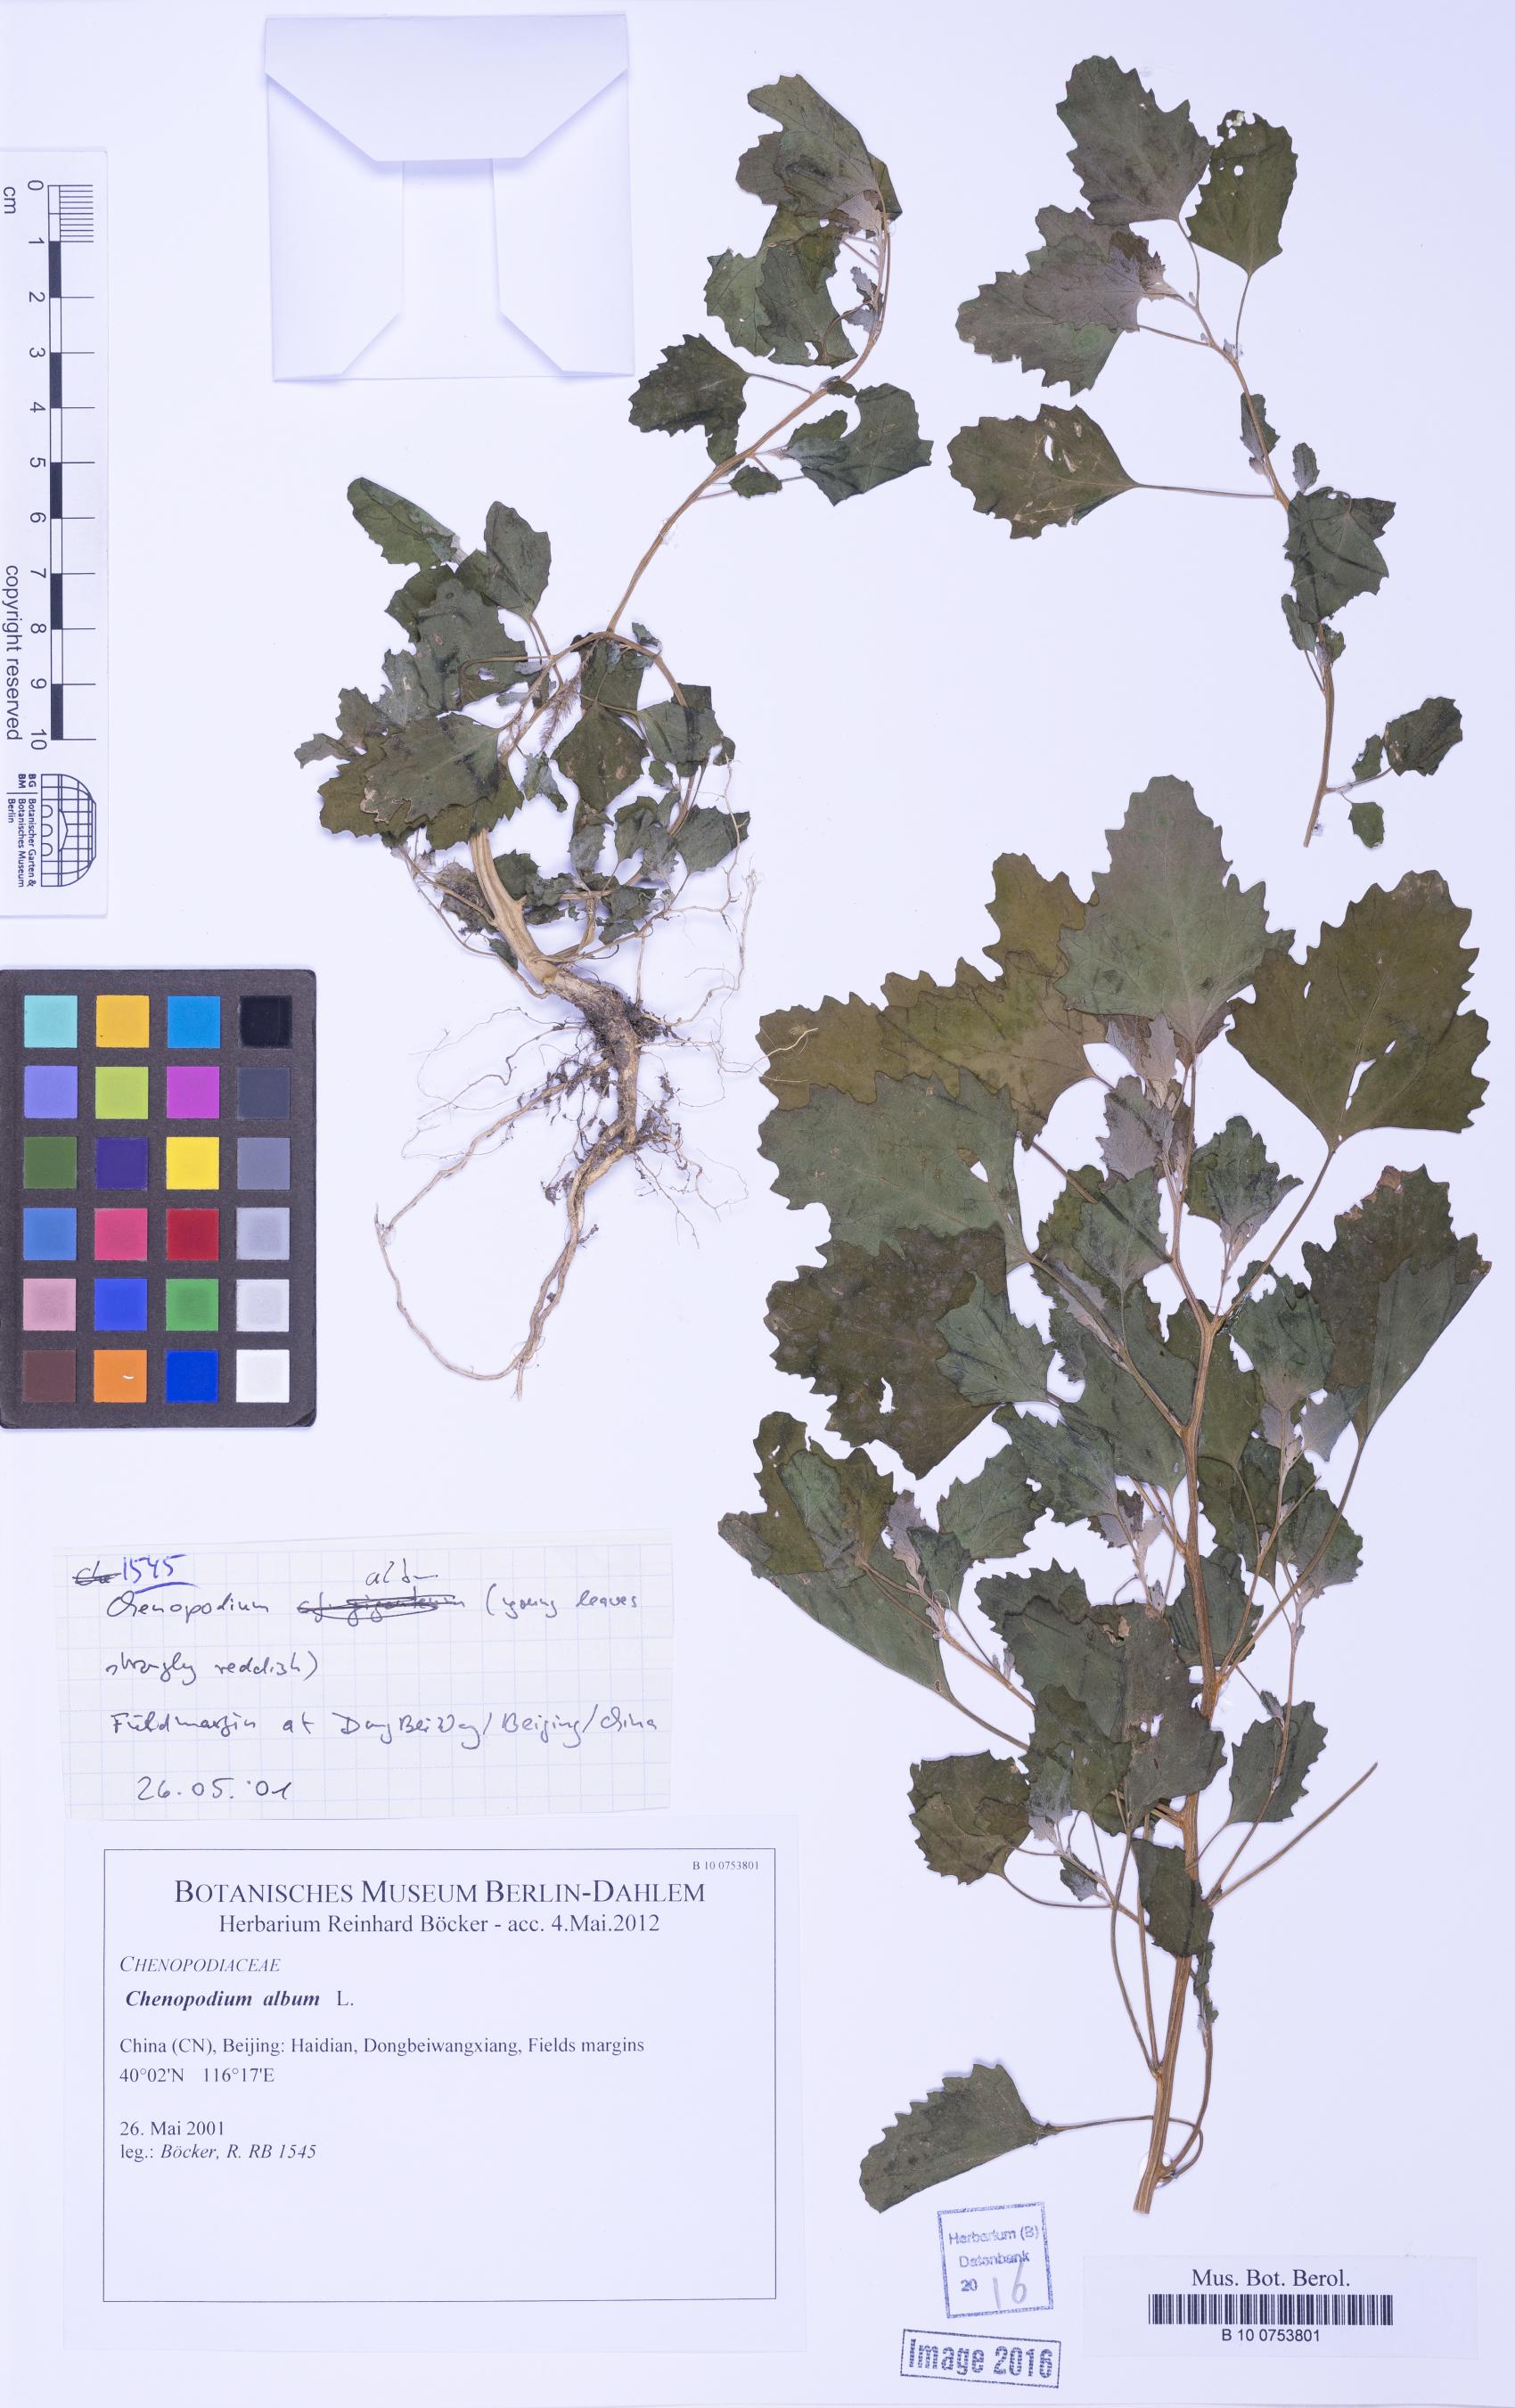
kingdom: Plantae
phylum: Tracheophyta
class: Magnoliopsida
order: Caryophyllales
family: Amaranthaceae
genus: Chenopodium
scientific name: Chenopodium album
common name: Fat-hen
